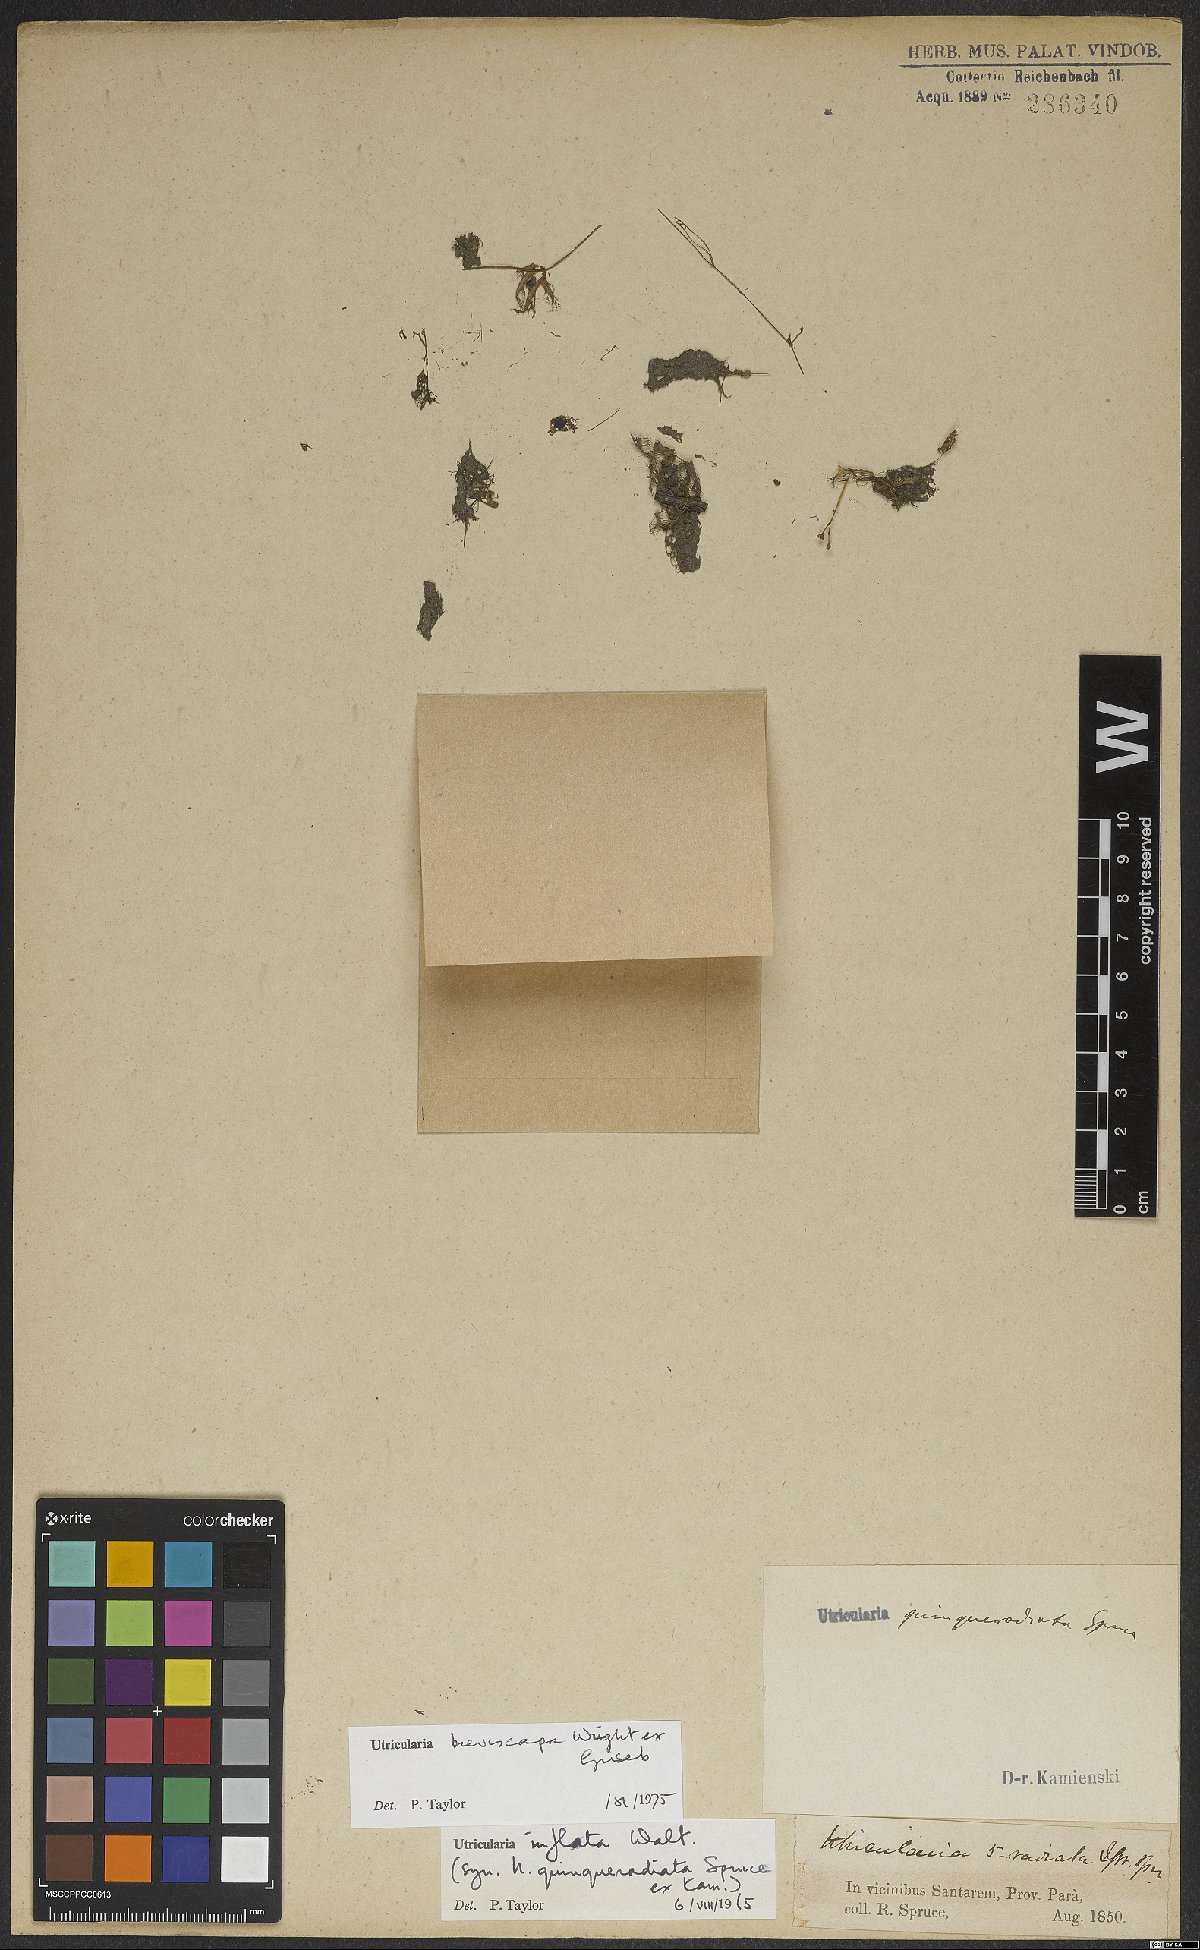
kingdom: Plantae
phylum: Tracheophyta
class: Magnoliopsida
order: Lamiales
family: Lentibulariaceae
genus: Utricularia
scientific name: Utricularia breviscapa
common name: Bladderwort
